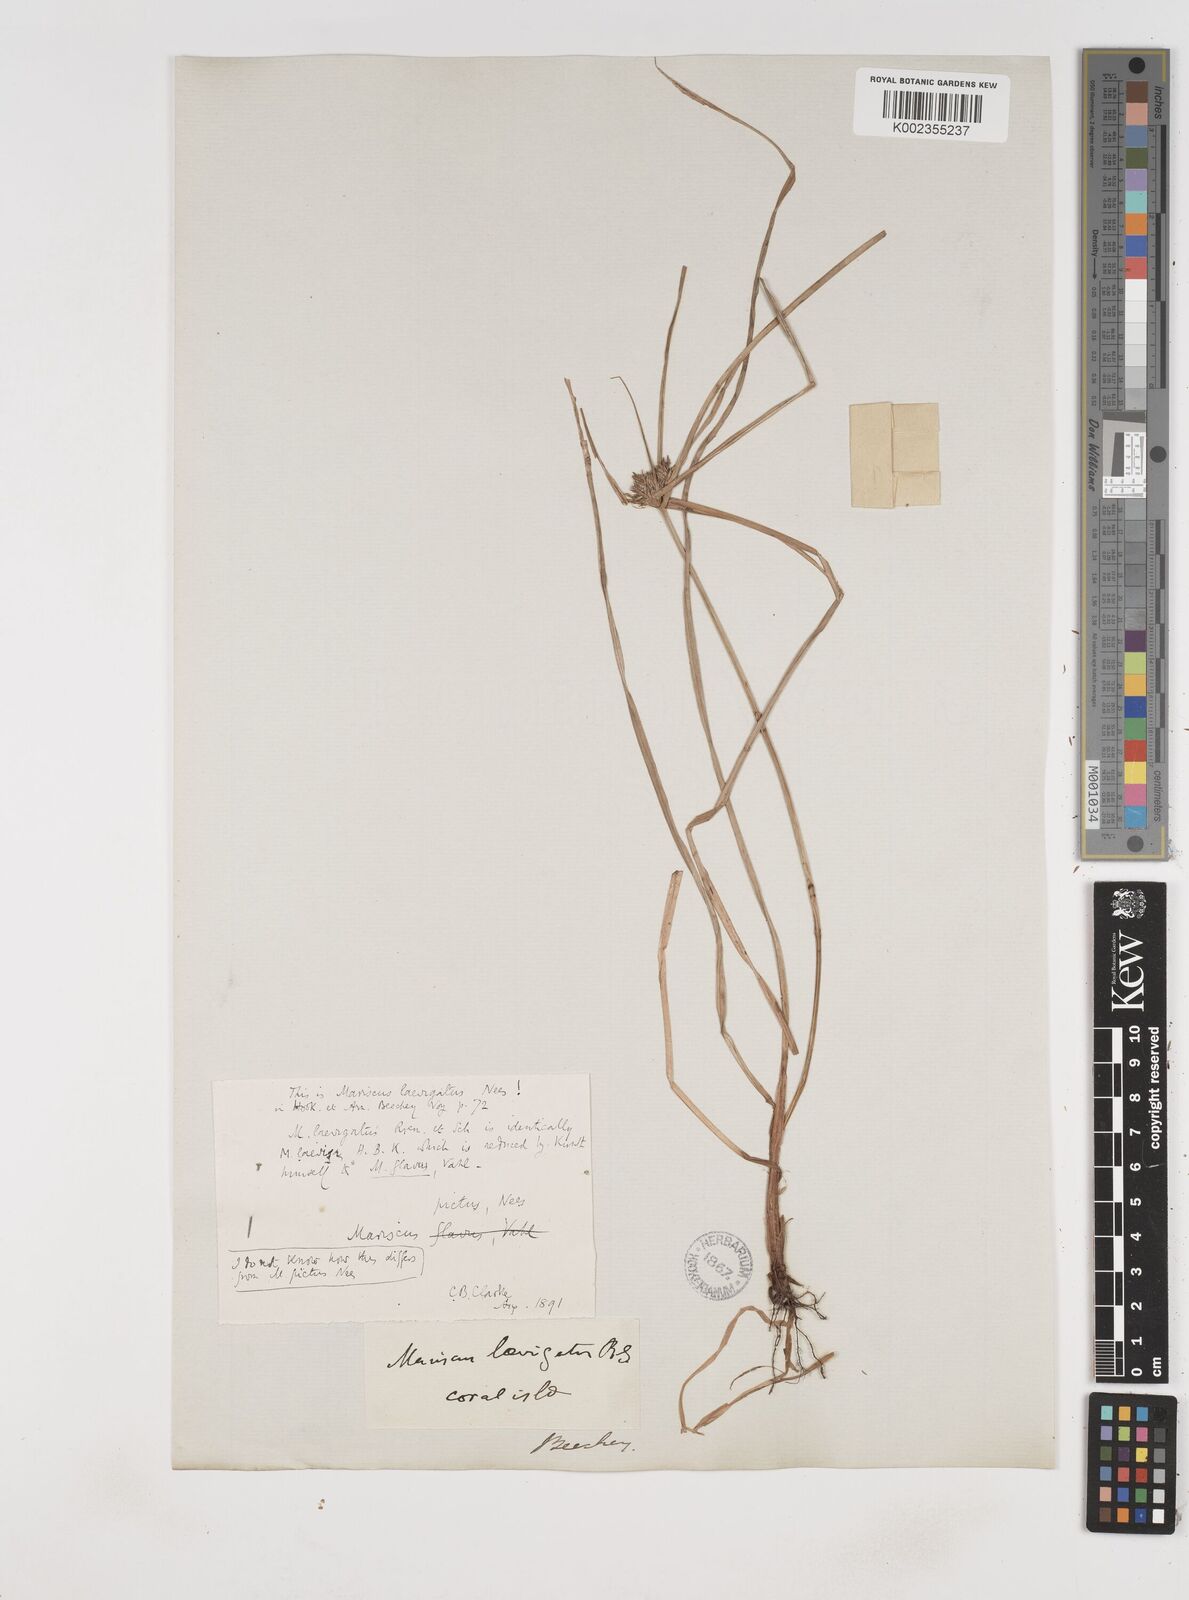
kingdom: Plantae
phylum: Tracheophyta
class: Liliopsida
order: Poales
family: Cyperaceae
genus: Cyperus
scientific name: Cyperus cyperinus
